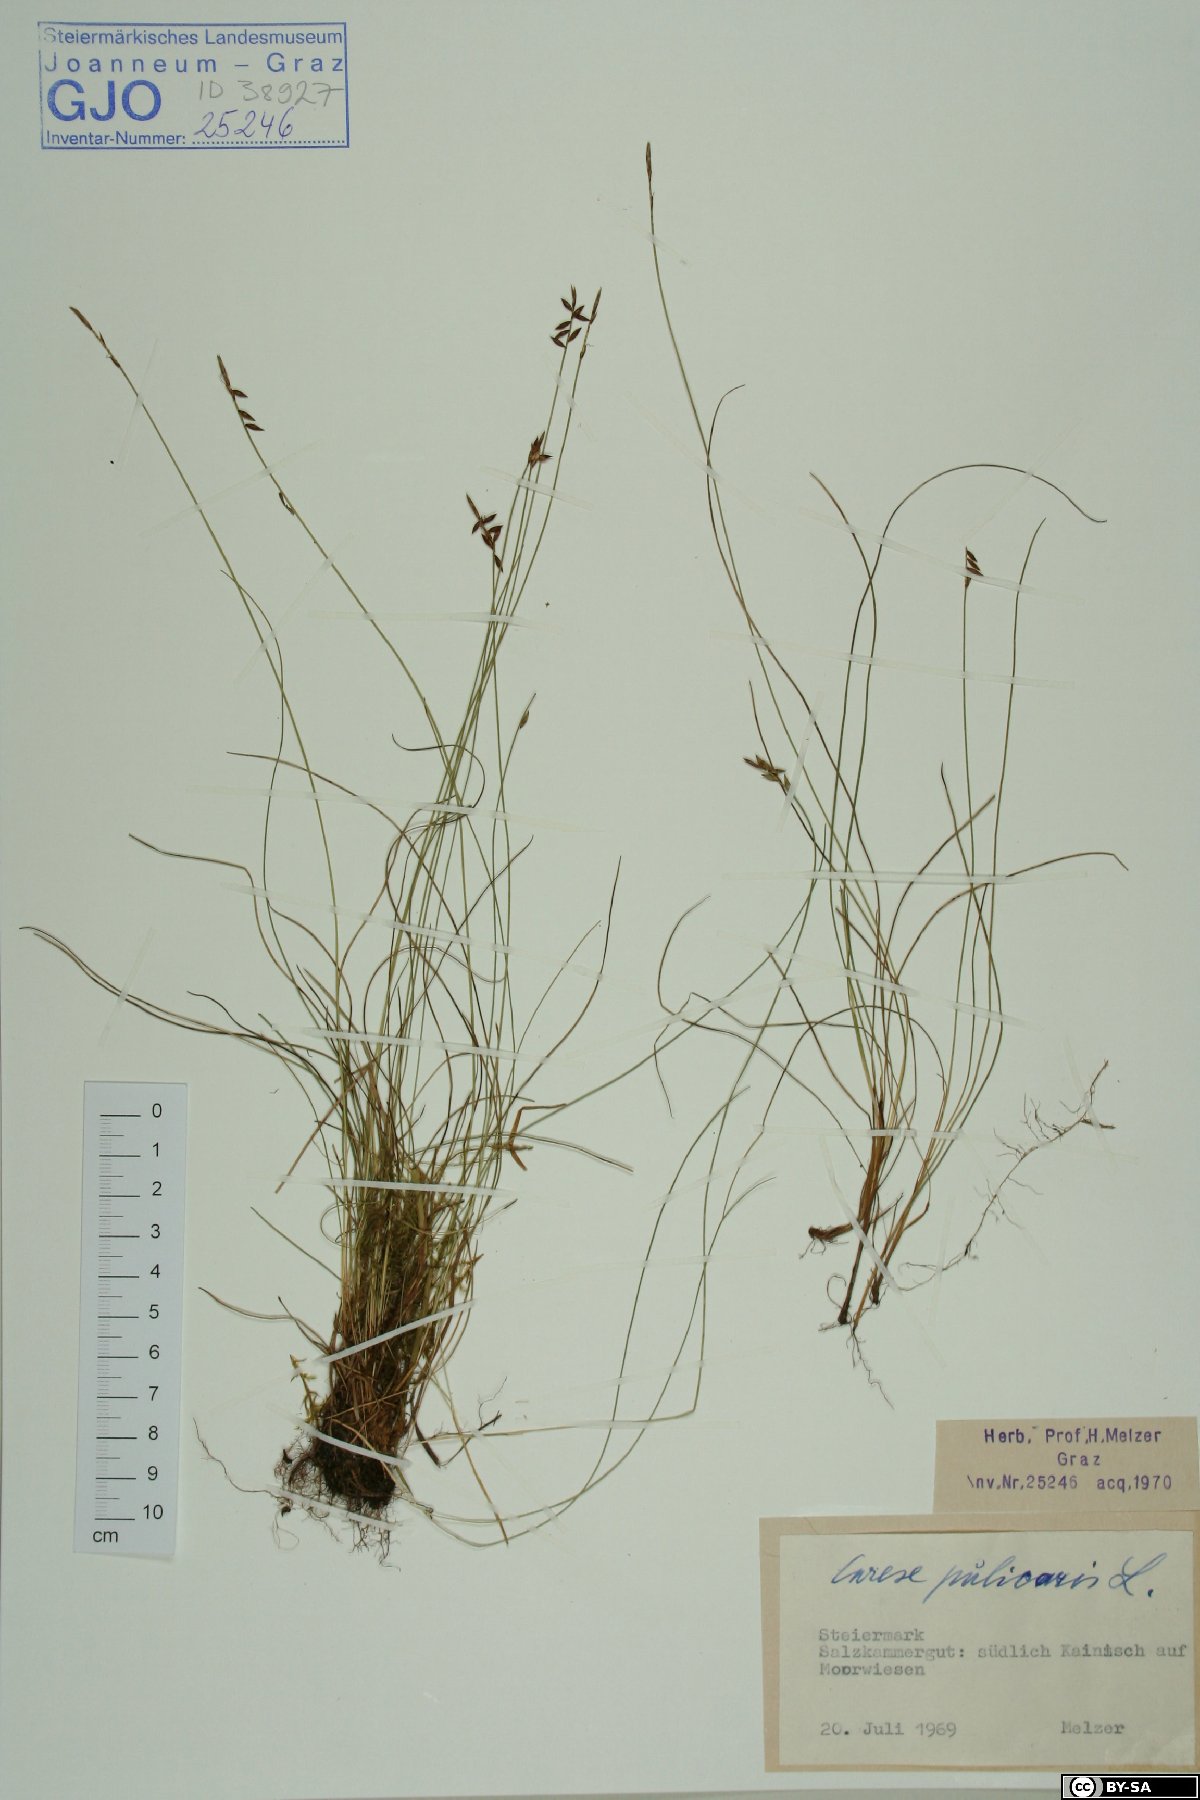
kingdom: Plantae
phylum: Tracheophyta
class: Liliopsida
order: Poales
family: Cyperaceae
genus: Carex
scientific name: Carex pulicaris
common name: Flea sedge
